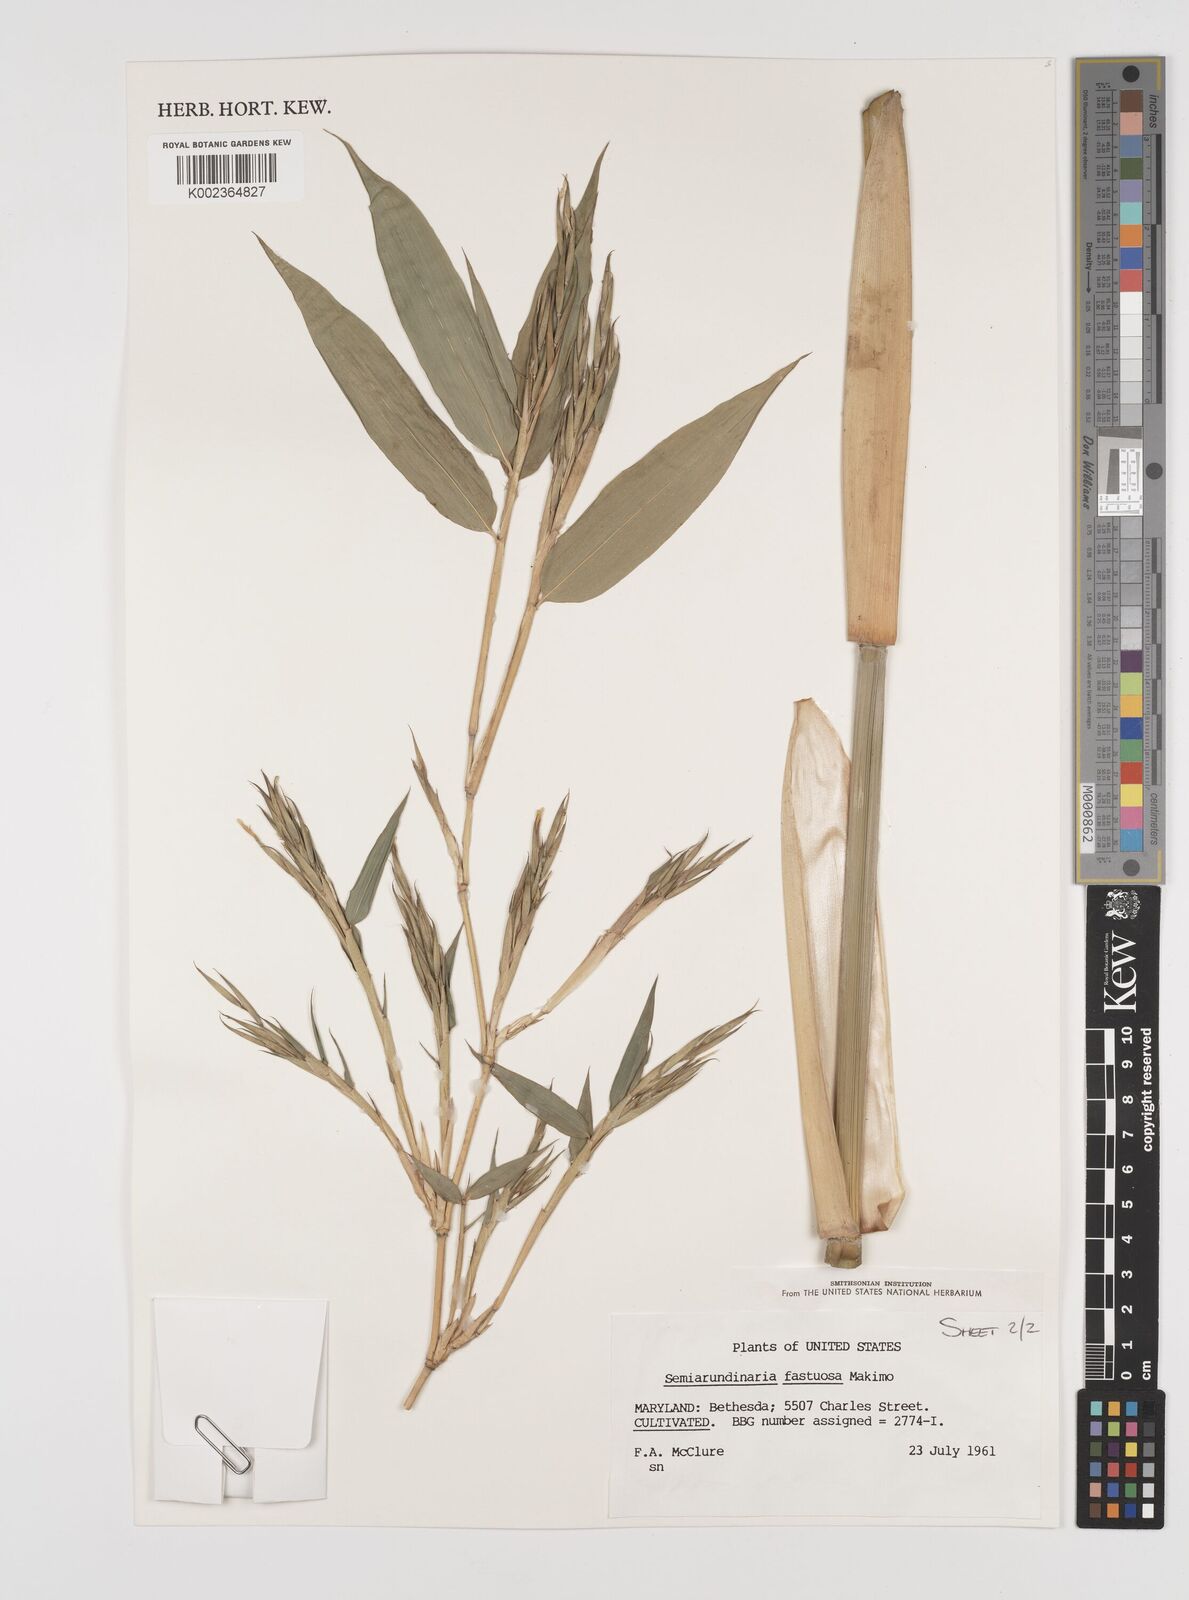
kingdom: Plantae
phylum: Tracheophyta
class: Liliopsida
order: Poales
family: Poaceae
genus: Semiarundinaria
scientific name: Semiarundinaria fastuosa
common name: Narihira bamboo
